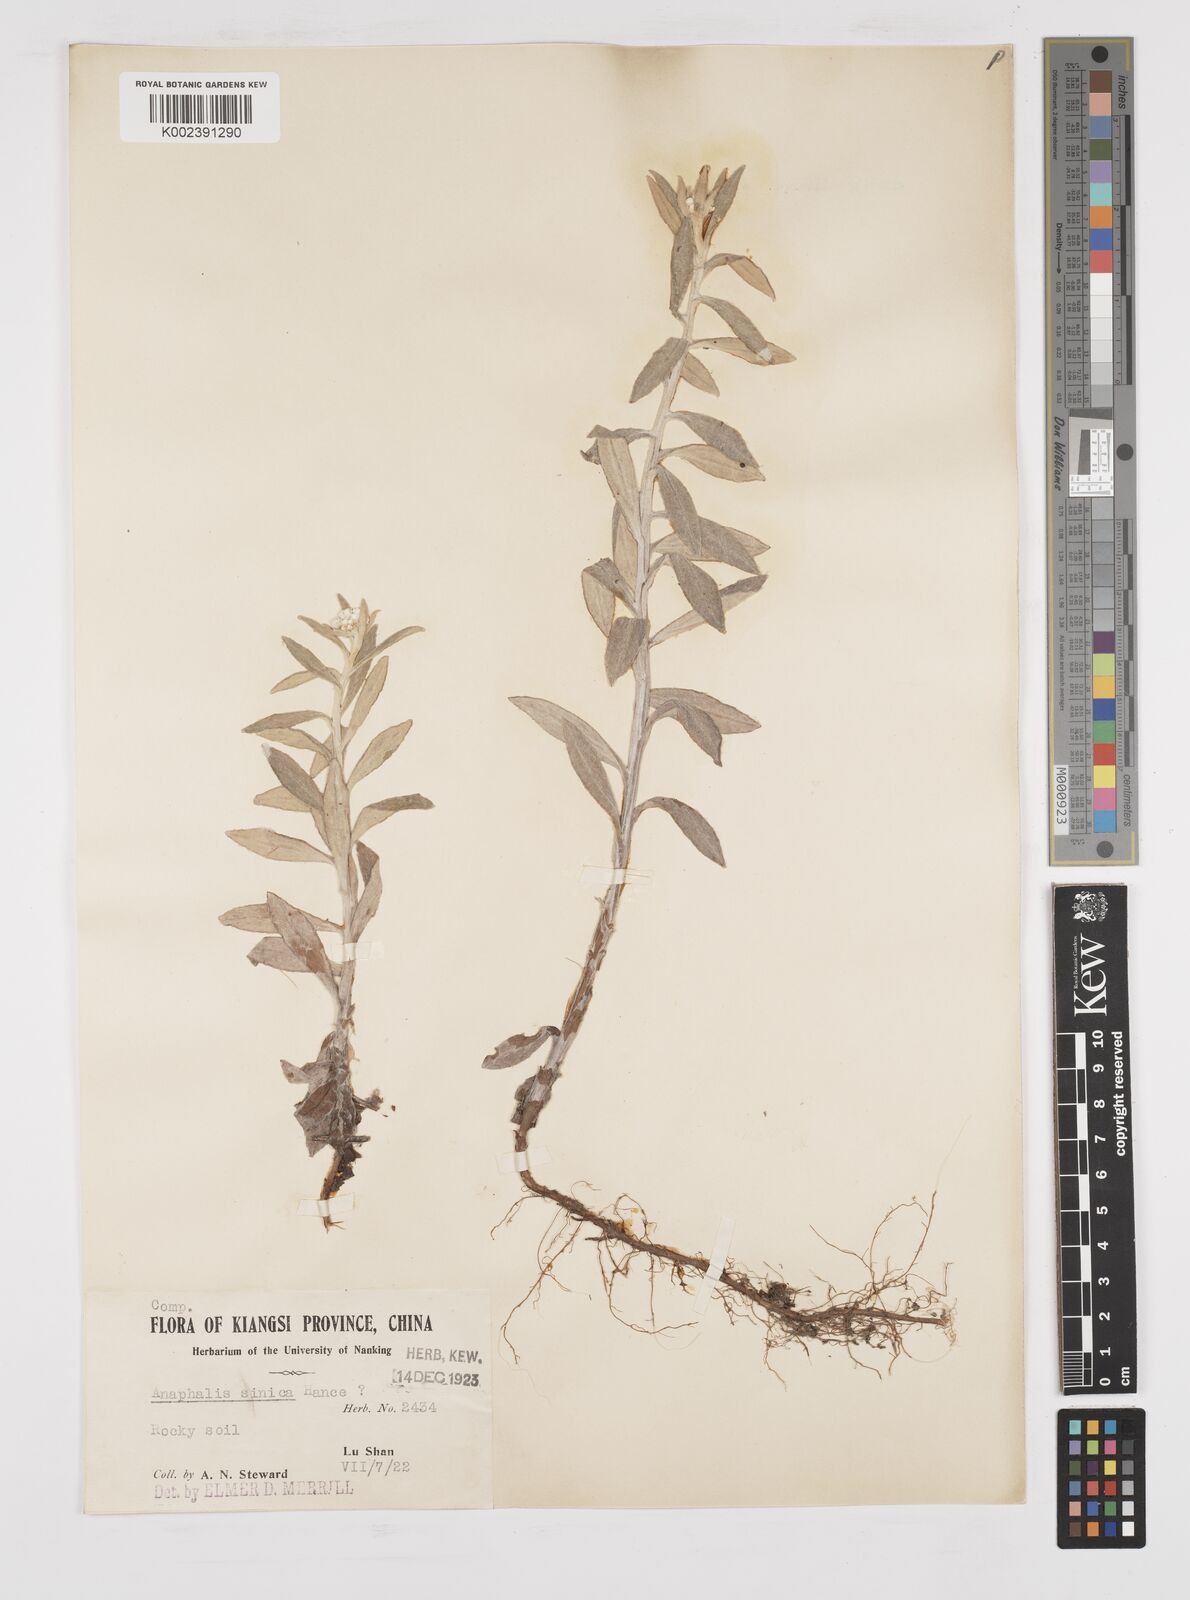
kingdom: Plantae
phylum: Tracheophyta
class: Magnoliopsida
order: Asterales
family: Asteraceae
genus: Anaphalis
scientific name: Anaphalis sinica
